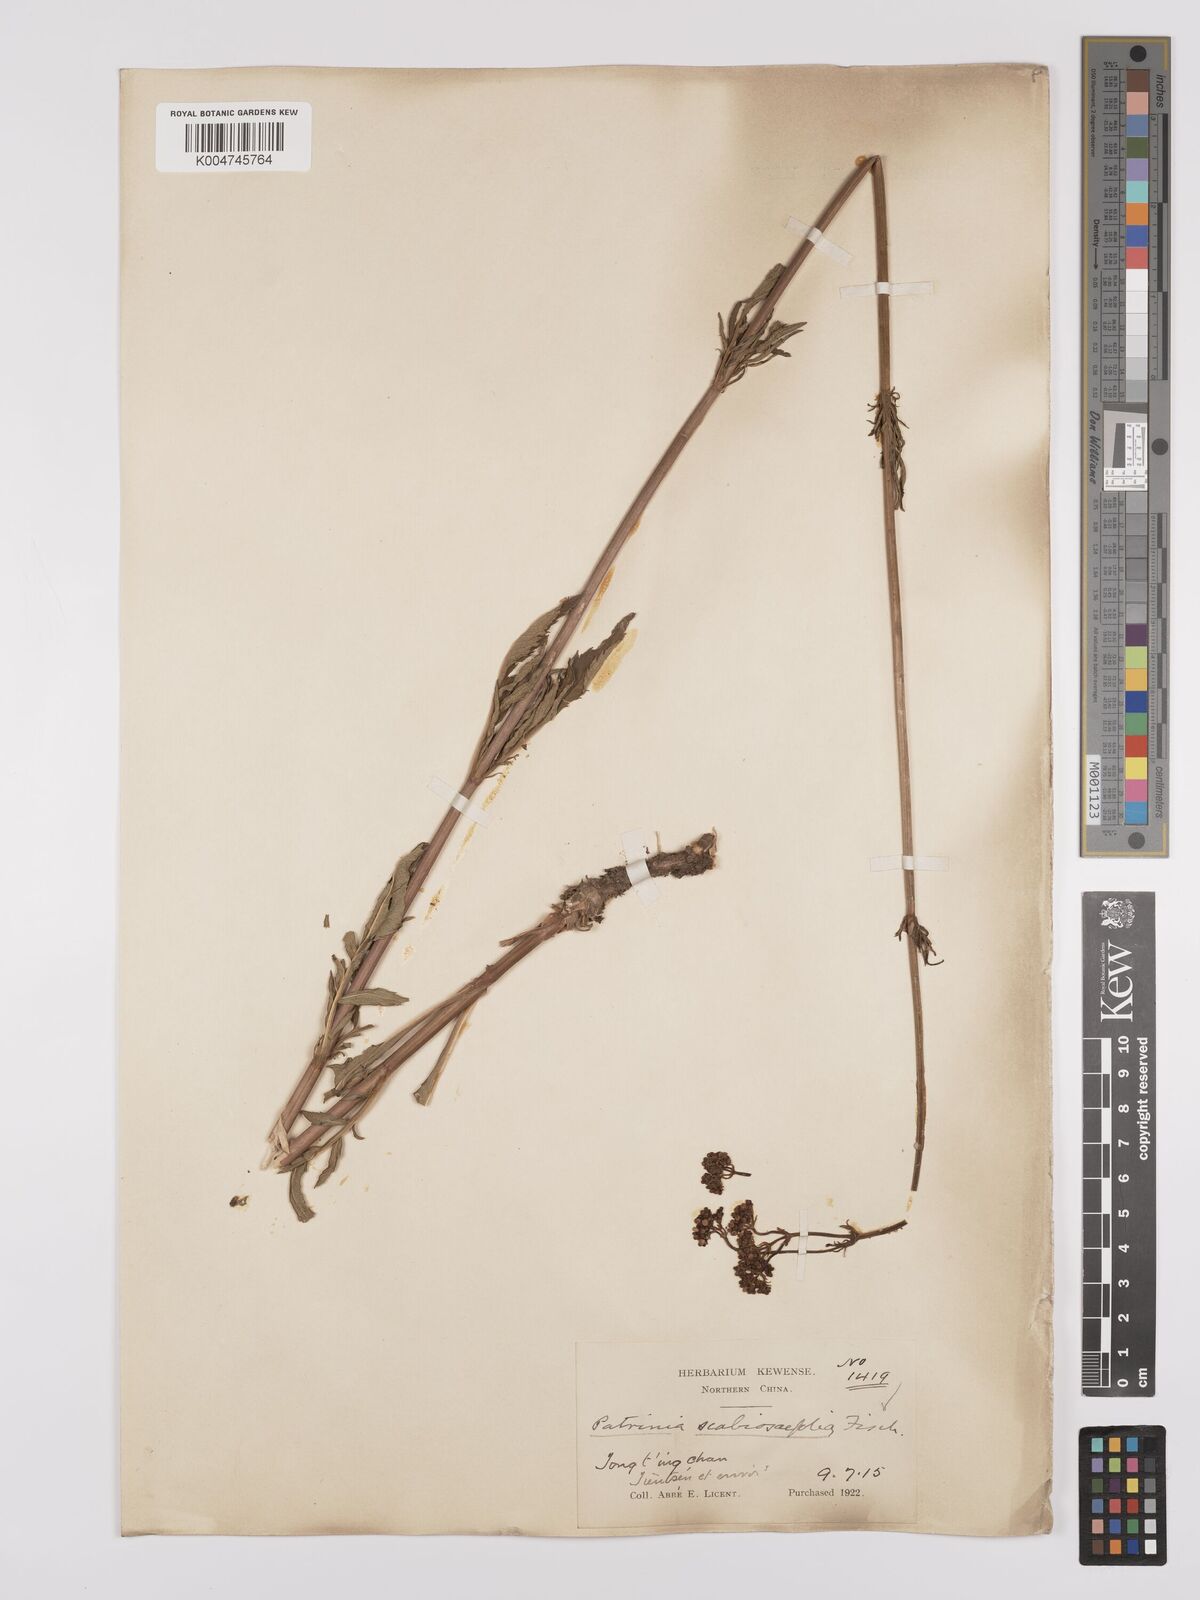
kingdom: Plantae
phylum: Tracheophyta
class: Magnoliopsida
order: Dipsacales
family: Caprifoliaceae
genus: Patrinia
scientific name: Patrinia
